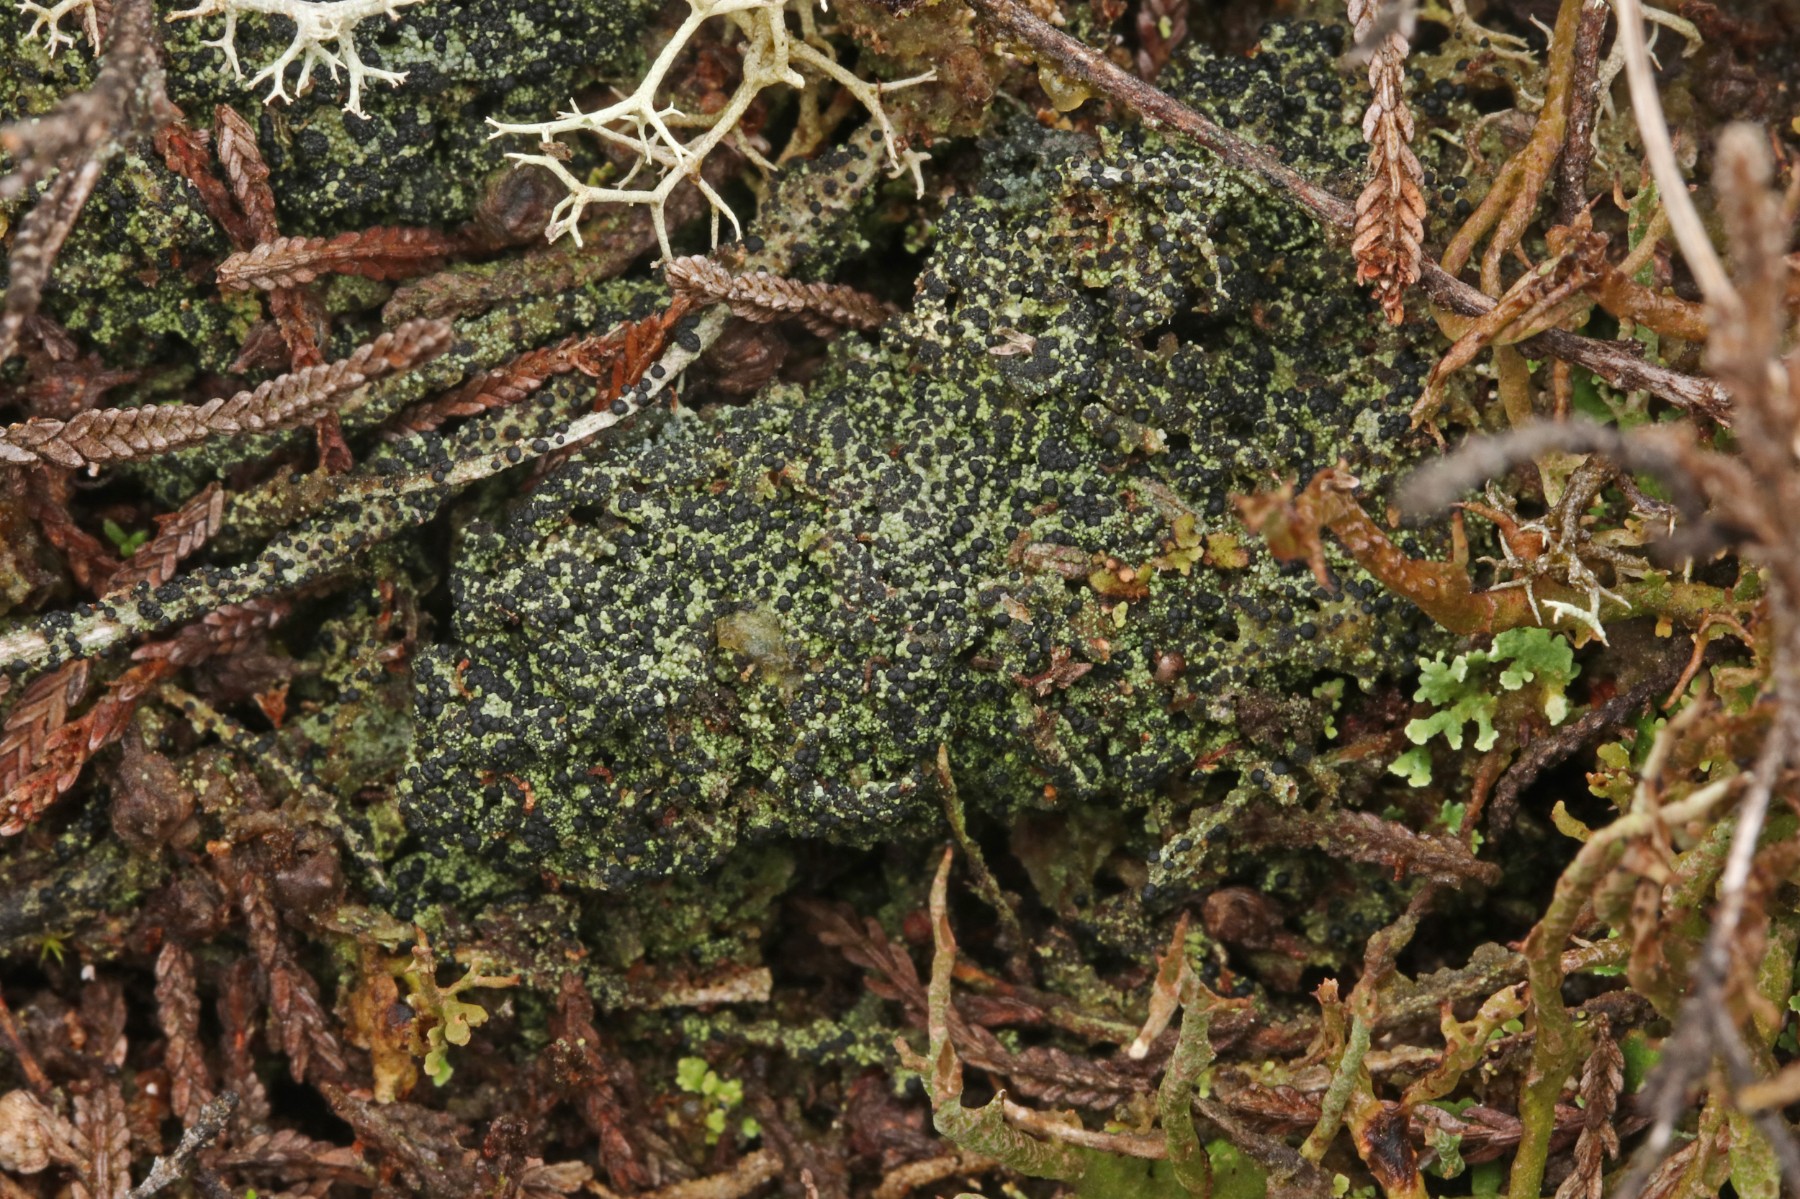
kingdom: Fungi
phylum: Ascomycota
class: Lecanoromycetes
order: Lecanorales
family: Byssolomataceae
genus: Micarea
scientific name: Micarea lignaria
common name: tørve-knaplav
